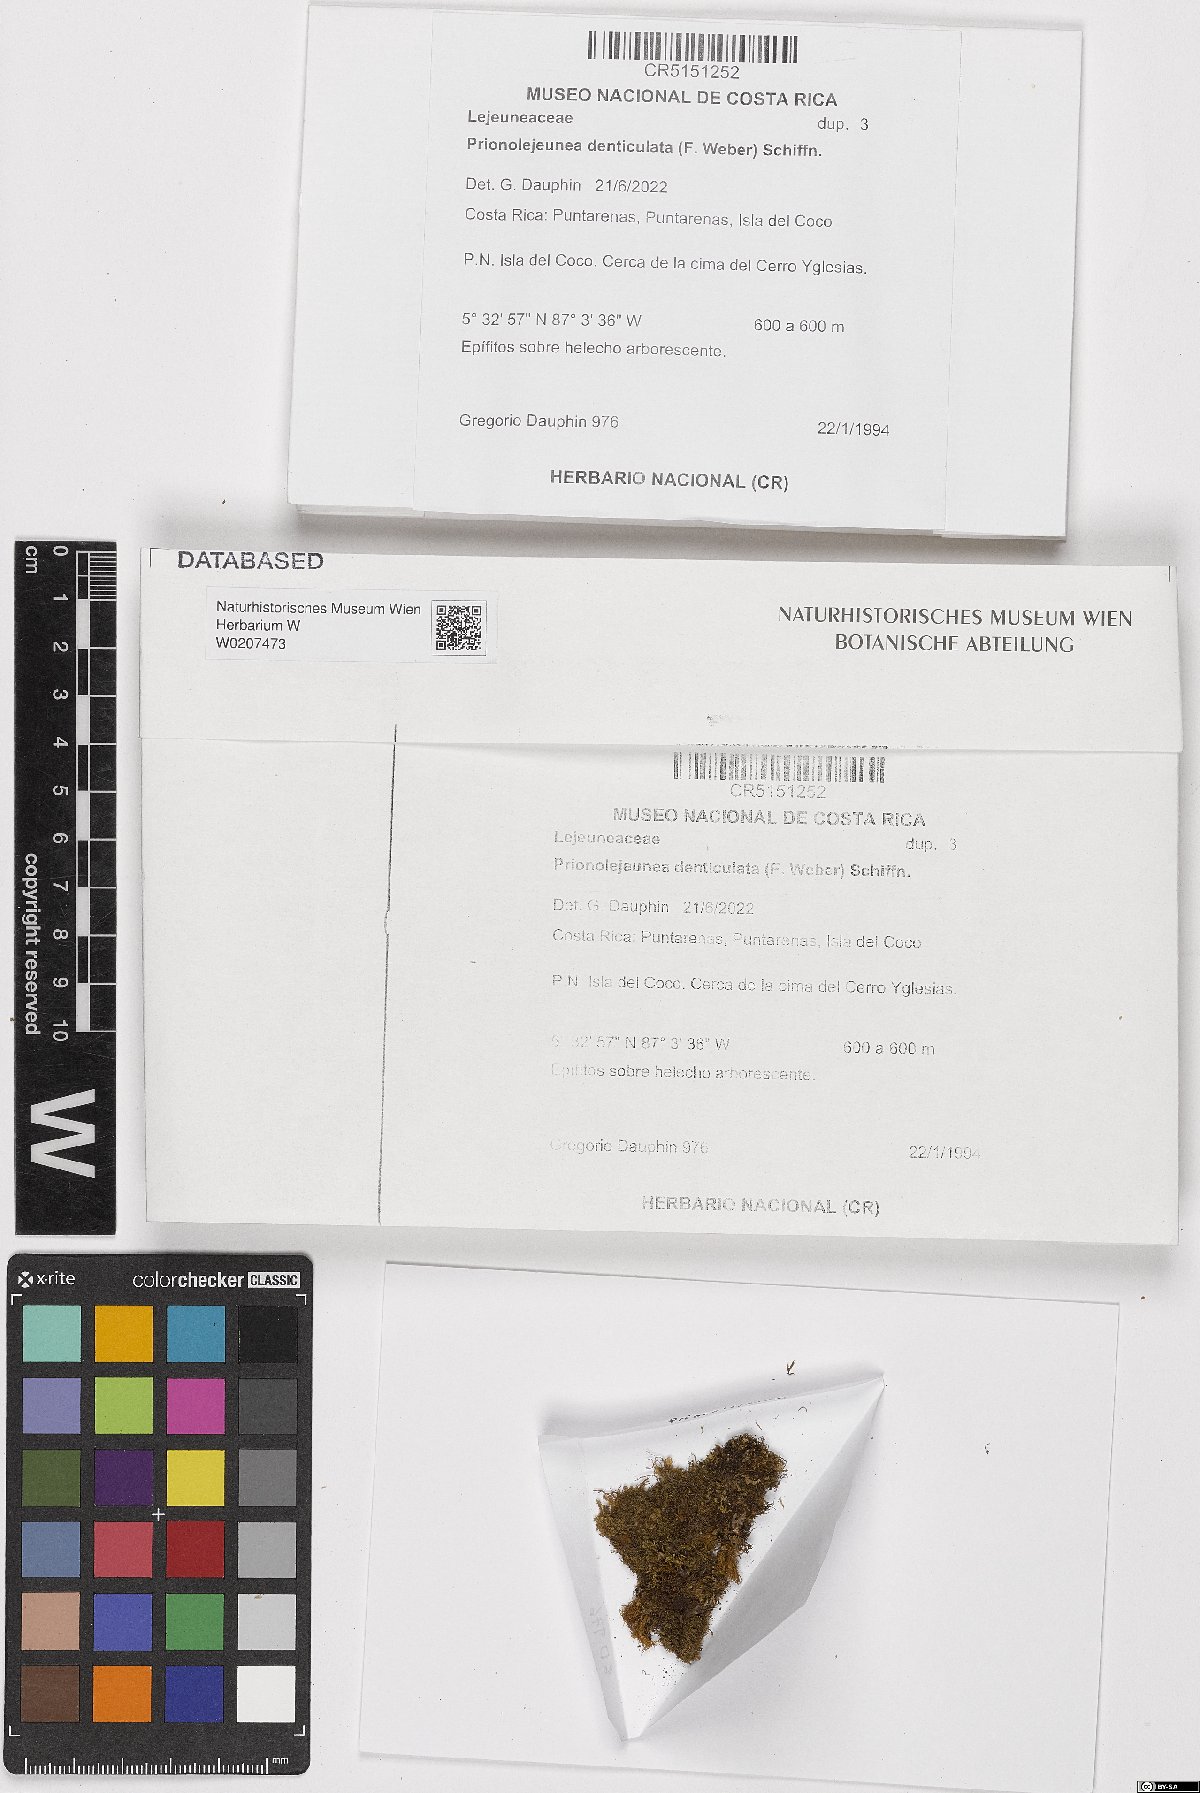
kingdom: Plantae
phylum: Marchantiophyta
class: Jungermanniopsida
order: Porellales
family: Lejeuneaceae
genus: Prionolejeunea
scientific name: Prionolejeunea denticulata
